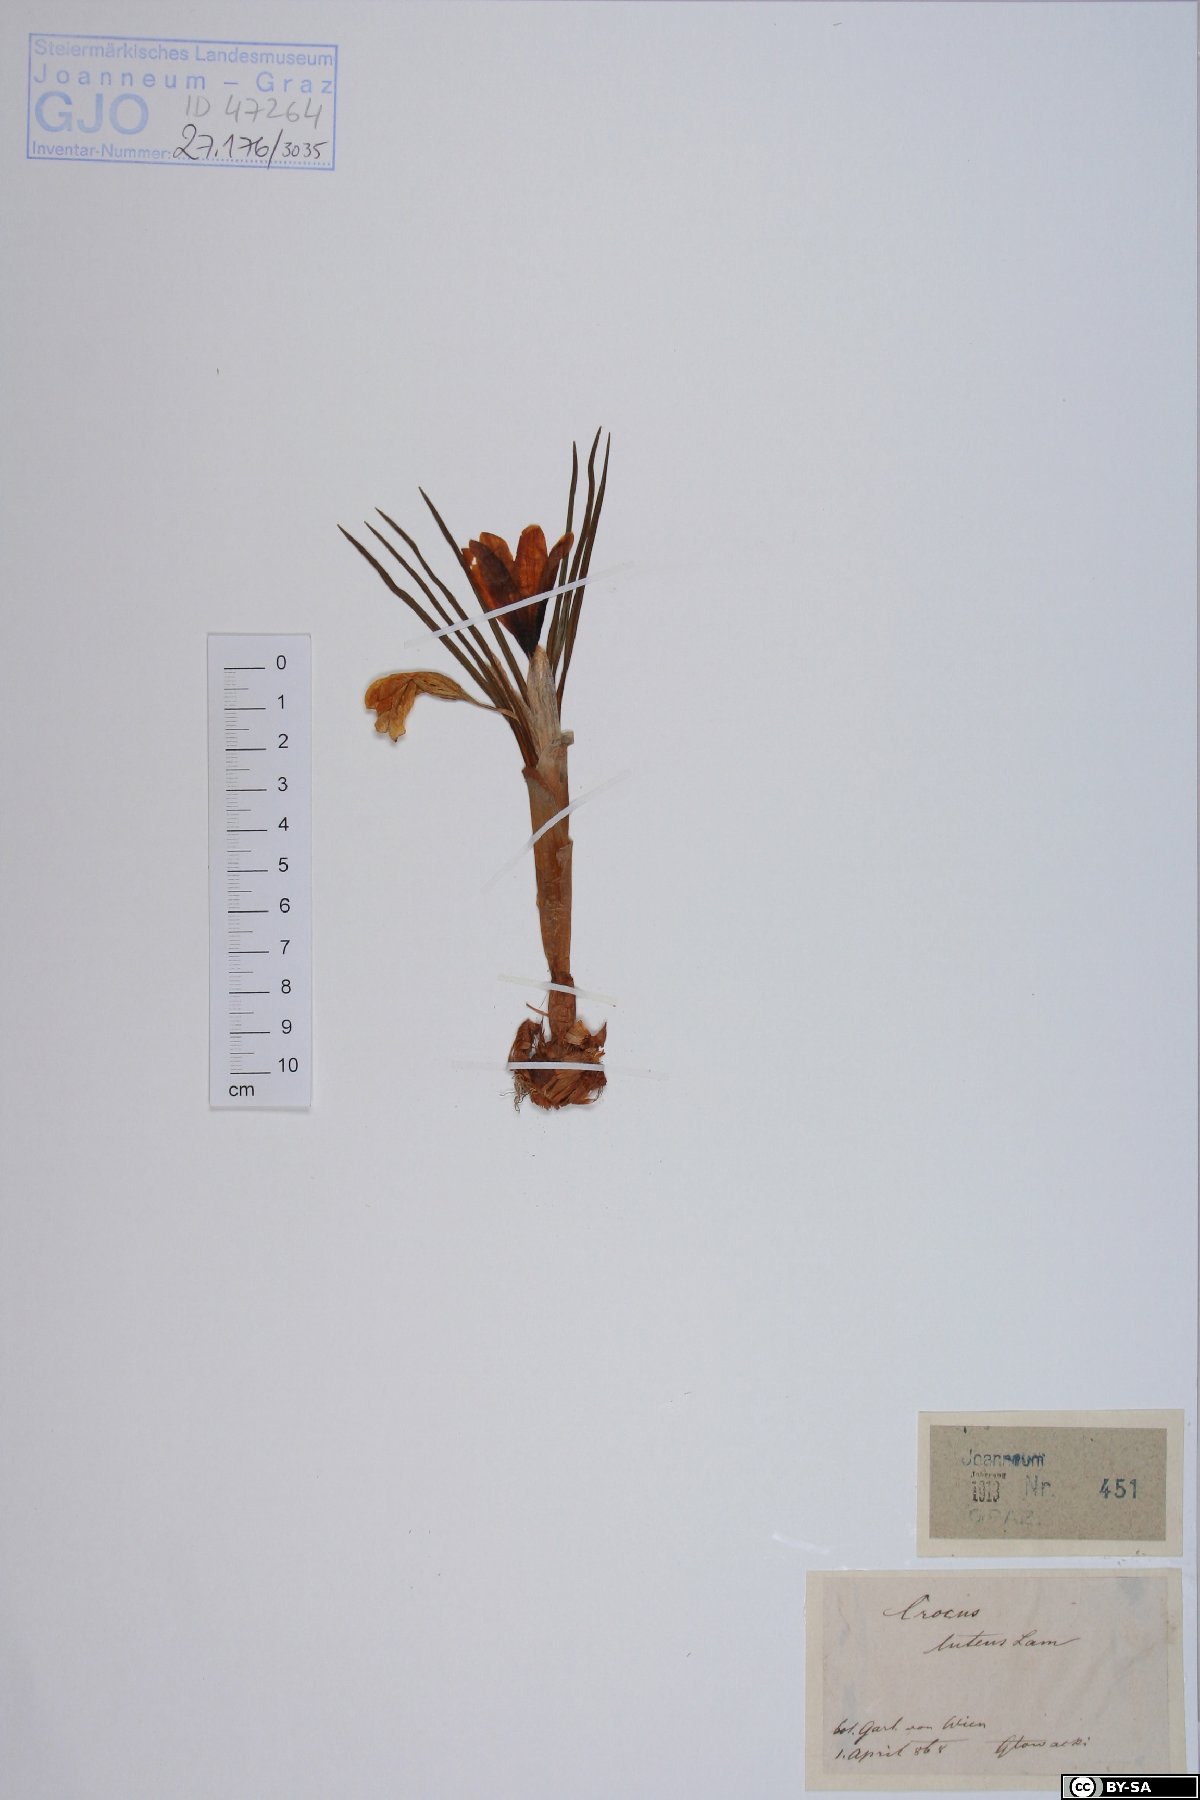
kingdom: Plantae
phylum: Tracheophyta
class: Liliopsida
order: Asparagales
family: Iridaceae
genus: Crocus
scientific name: Crocus luteus
